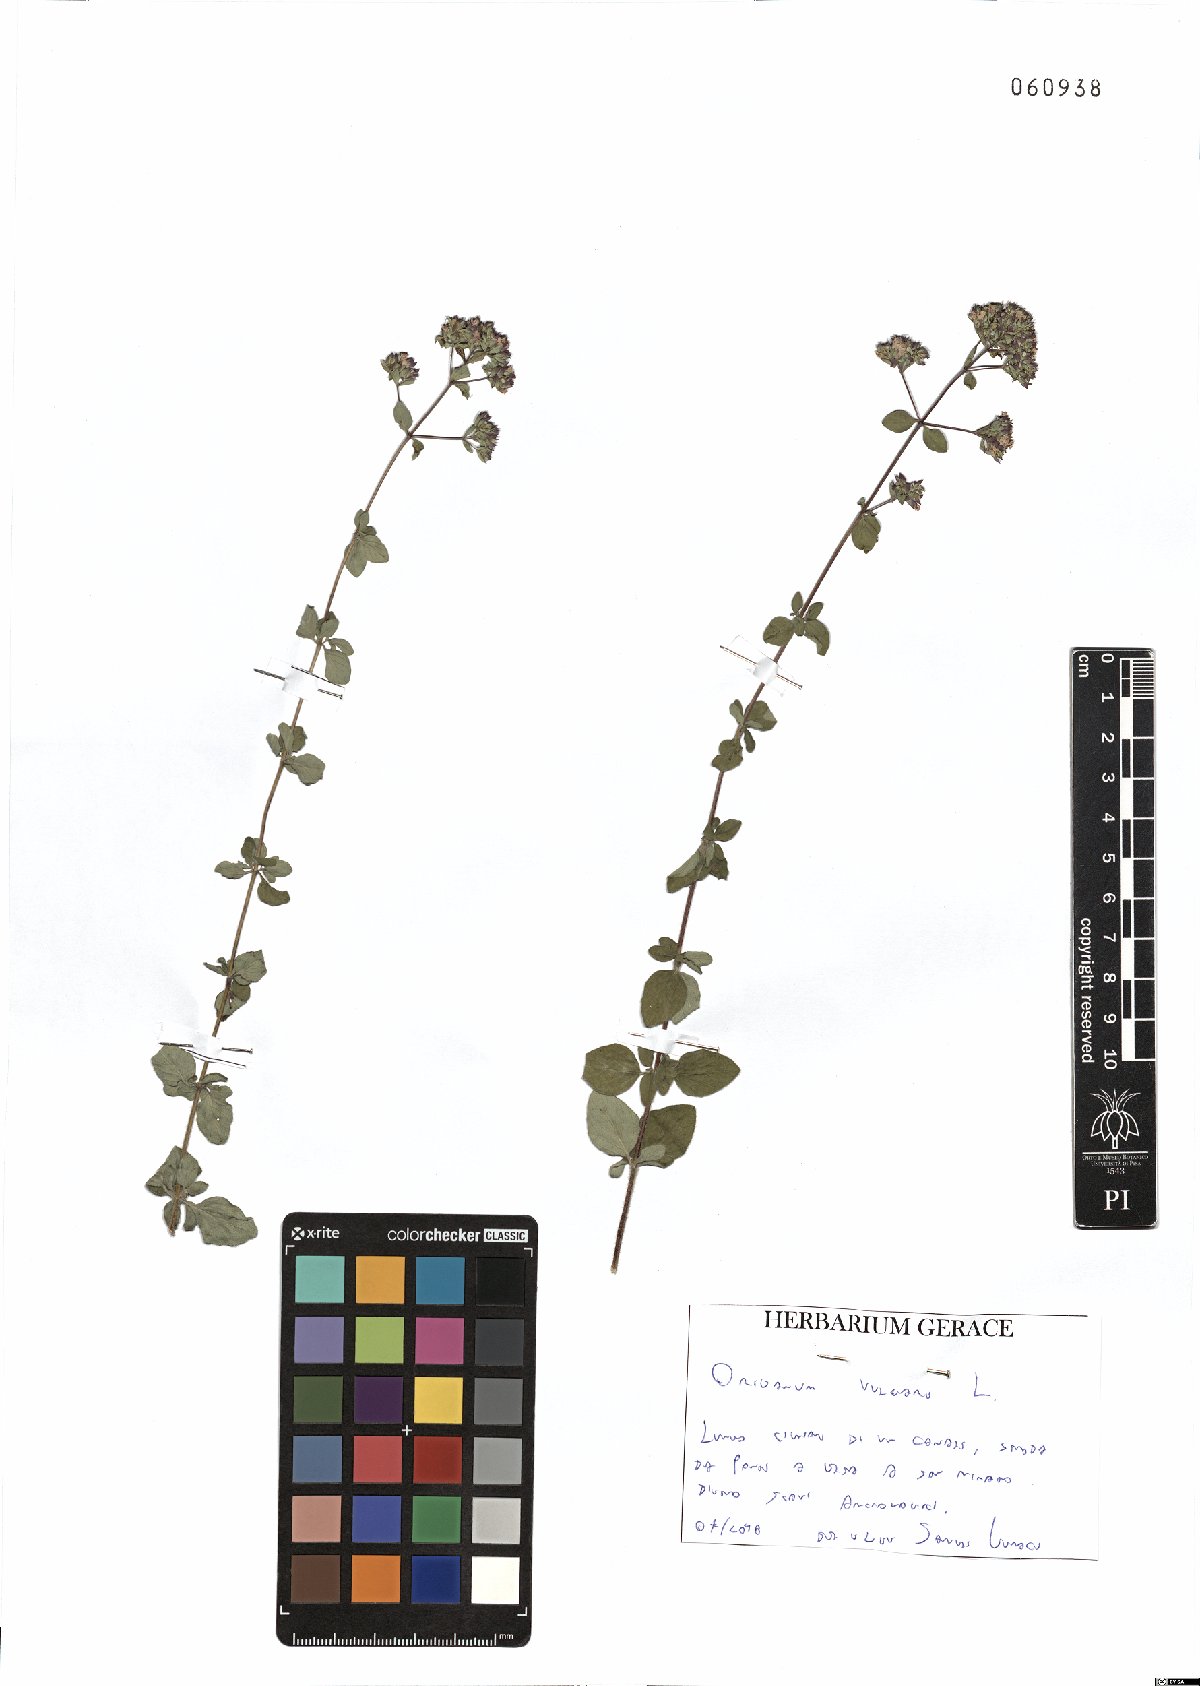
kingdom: Plantae
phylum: Tracheophyta
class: Magnoliopsida
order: Lamiales
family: Lamiaceae
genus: Origanum
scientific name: Origanum vulgare
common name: Wild marjoram
